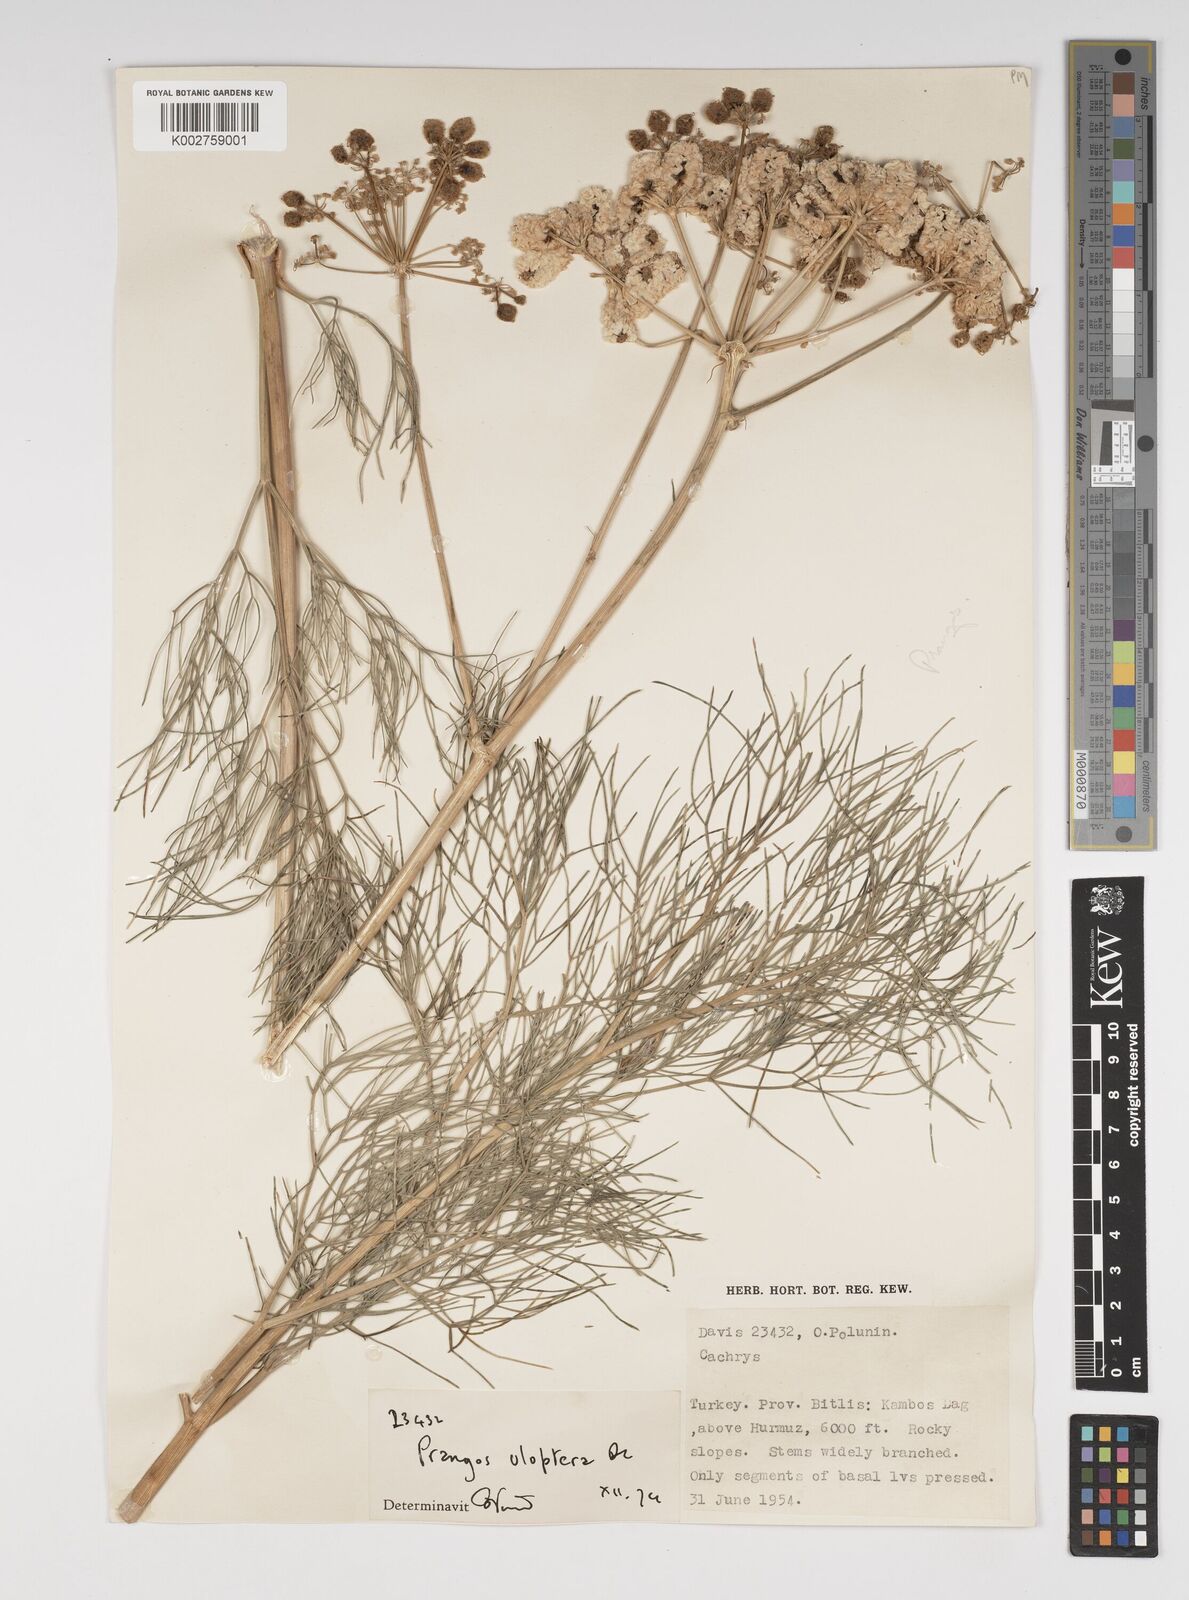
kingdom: Plantae
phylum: Tracheophyta
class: Magnoliopsida
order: Apiales
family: Apiaceae
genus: Prangos
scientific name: Prangos uloptera
